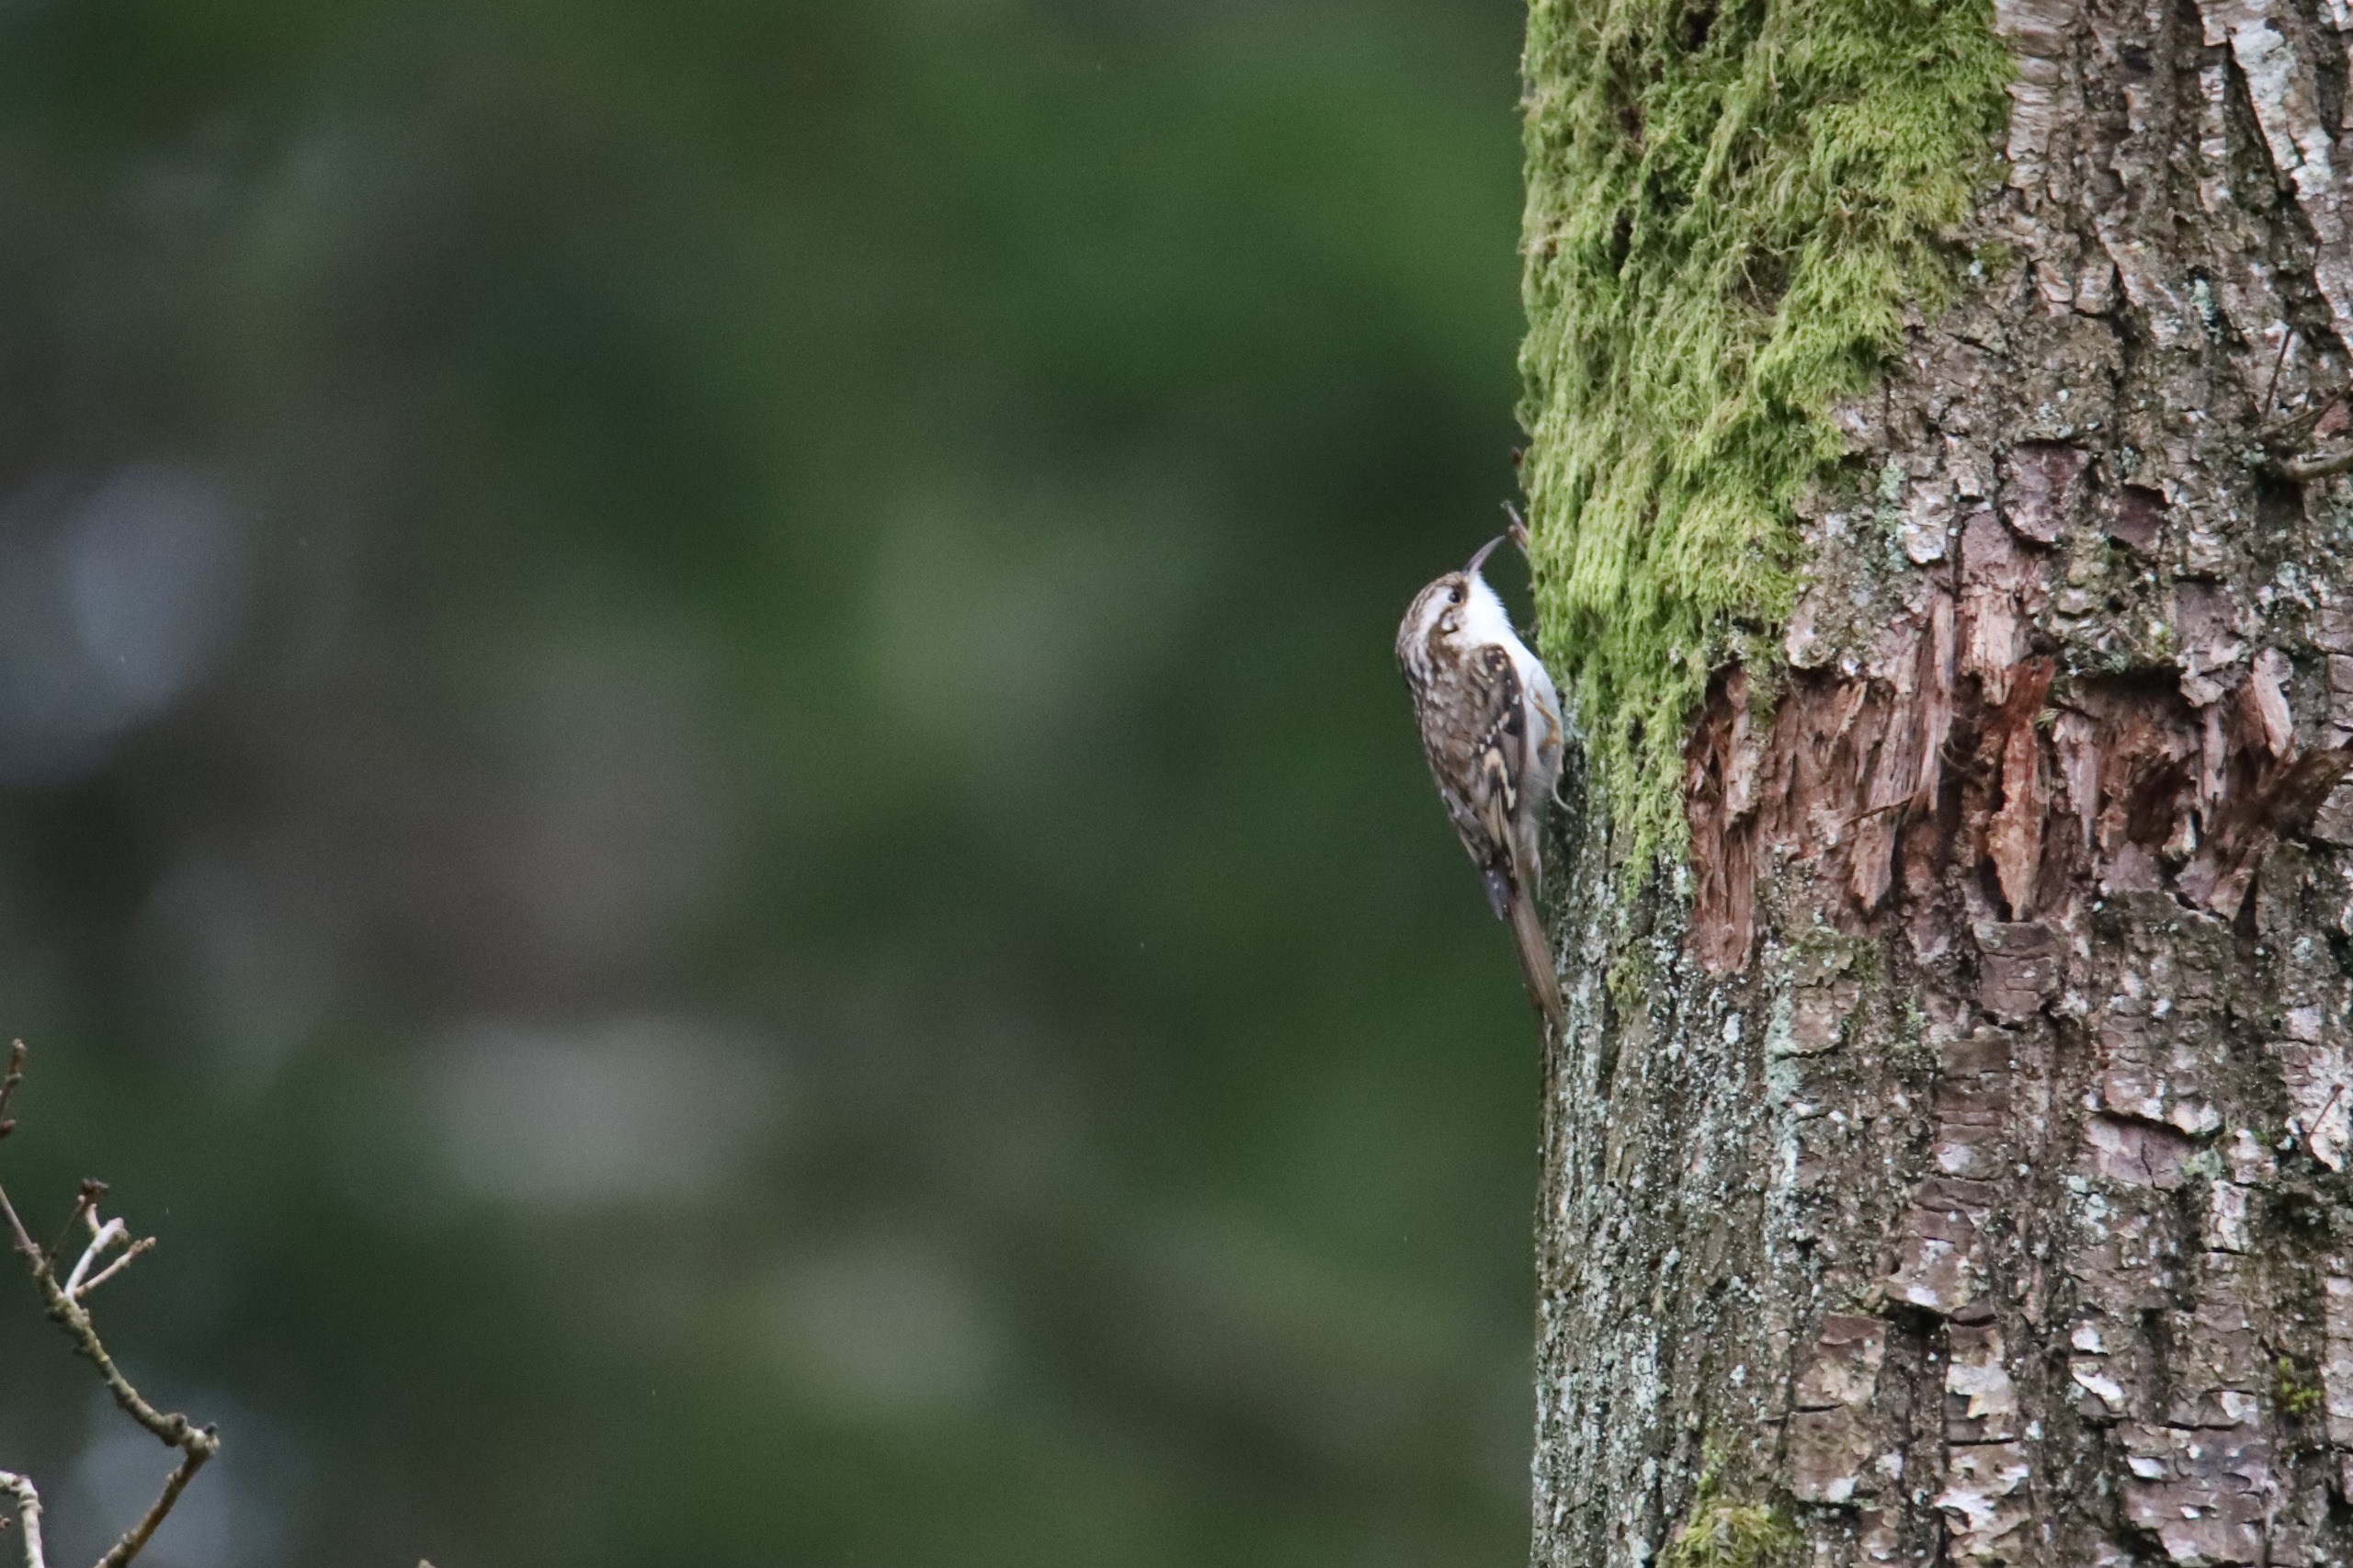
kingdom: Animalia
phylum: Chordata
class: Aves
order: Passeriformes
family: Certhiidae
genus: Certhia
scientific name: Certhia familiaris
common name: Træløber
